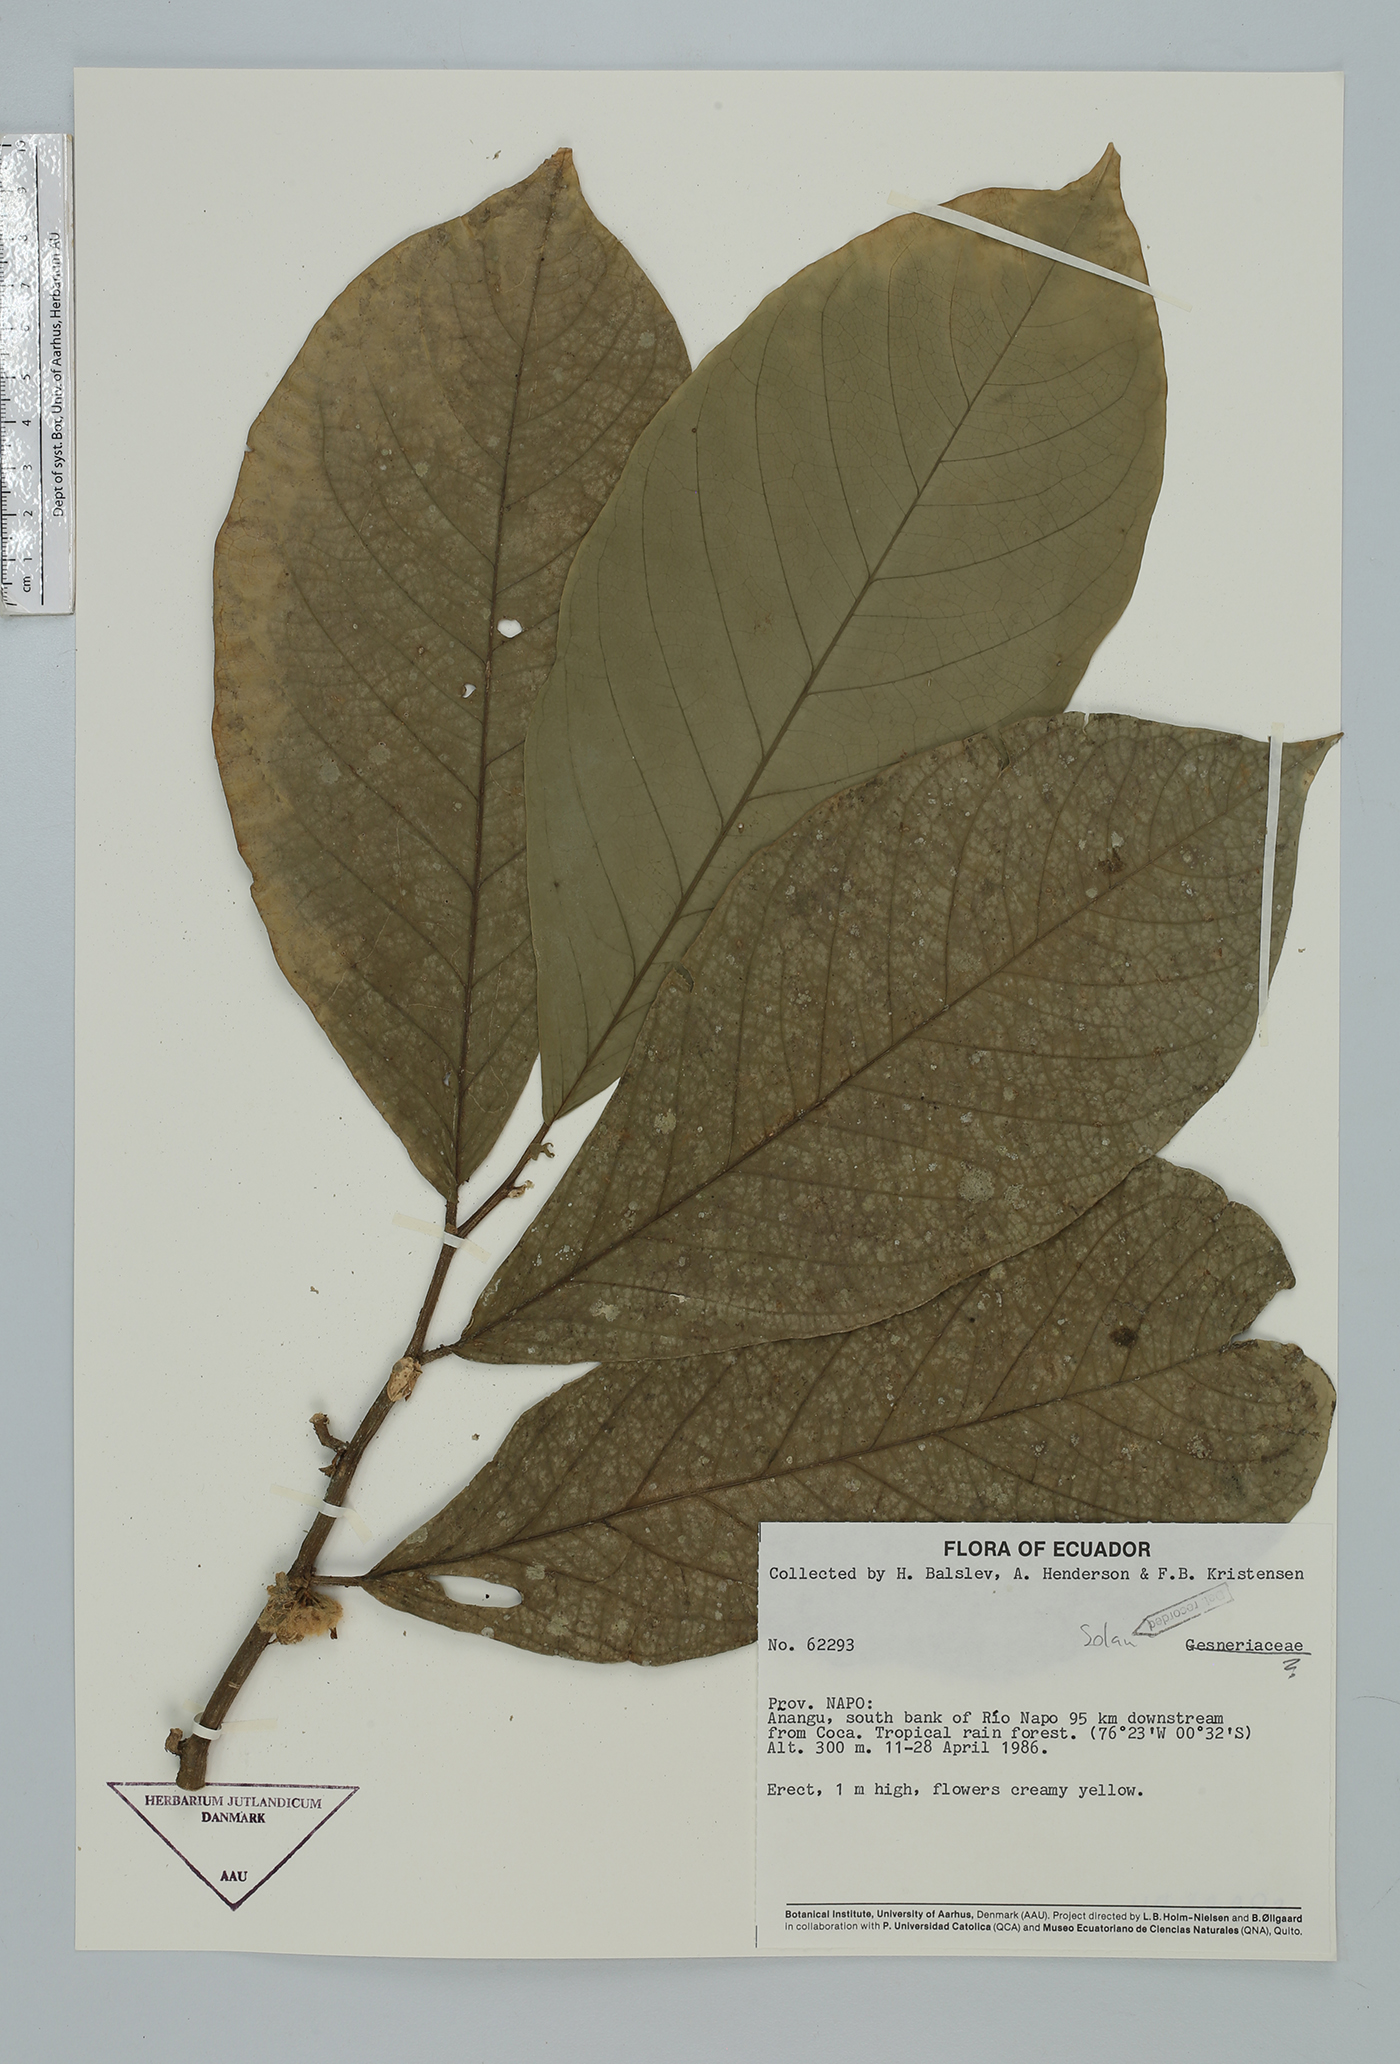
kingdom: Plantae
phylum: Tracheophyta
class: Magnoliopsida
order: Solanales
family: Solanaceae
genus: Cuatresia
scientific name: Cuatresia
